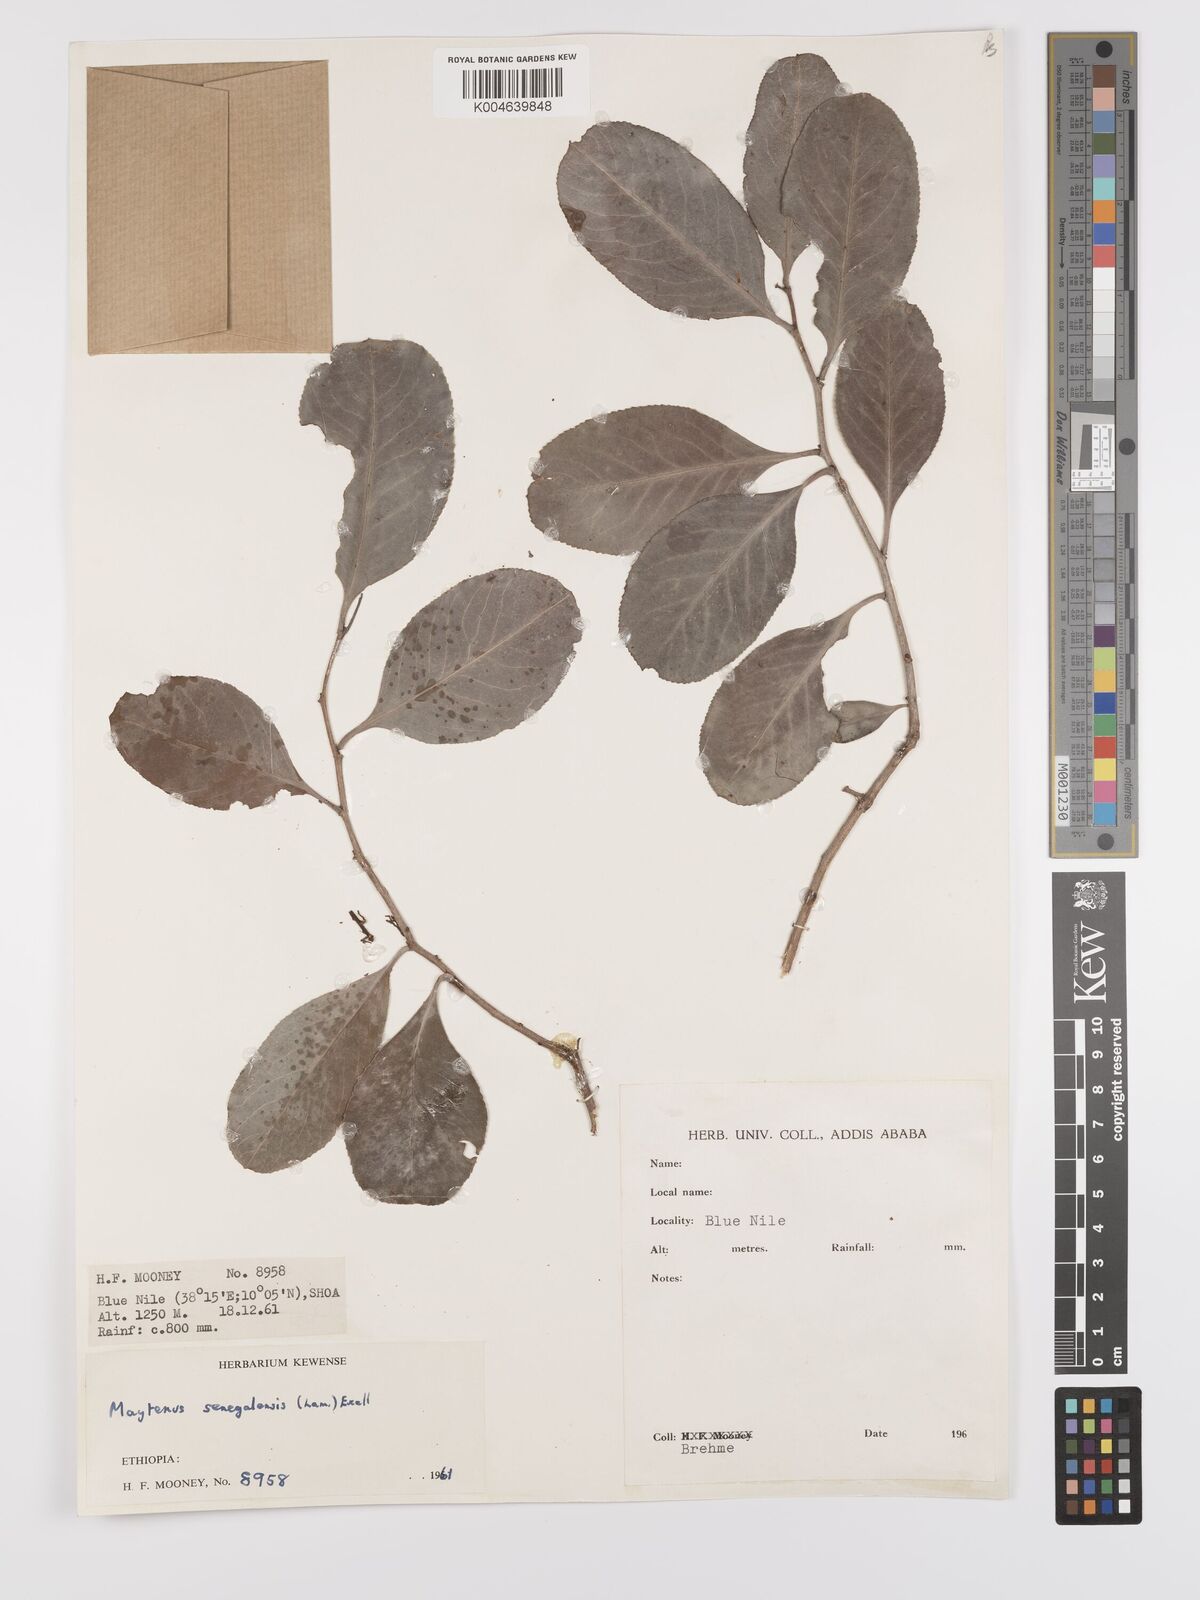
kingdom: Plantae
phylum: Tracheophyta
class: Magnoliopsida
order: Celastrales
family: Celastraceae
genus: Gymnosporia
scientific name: Gymnosporia senegalensis
